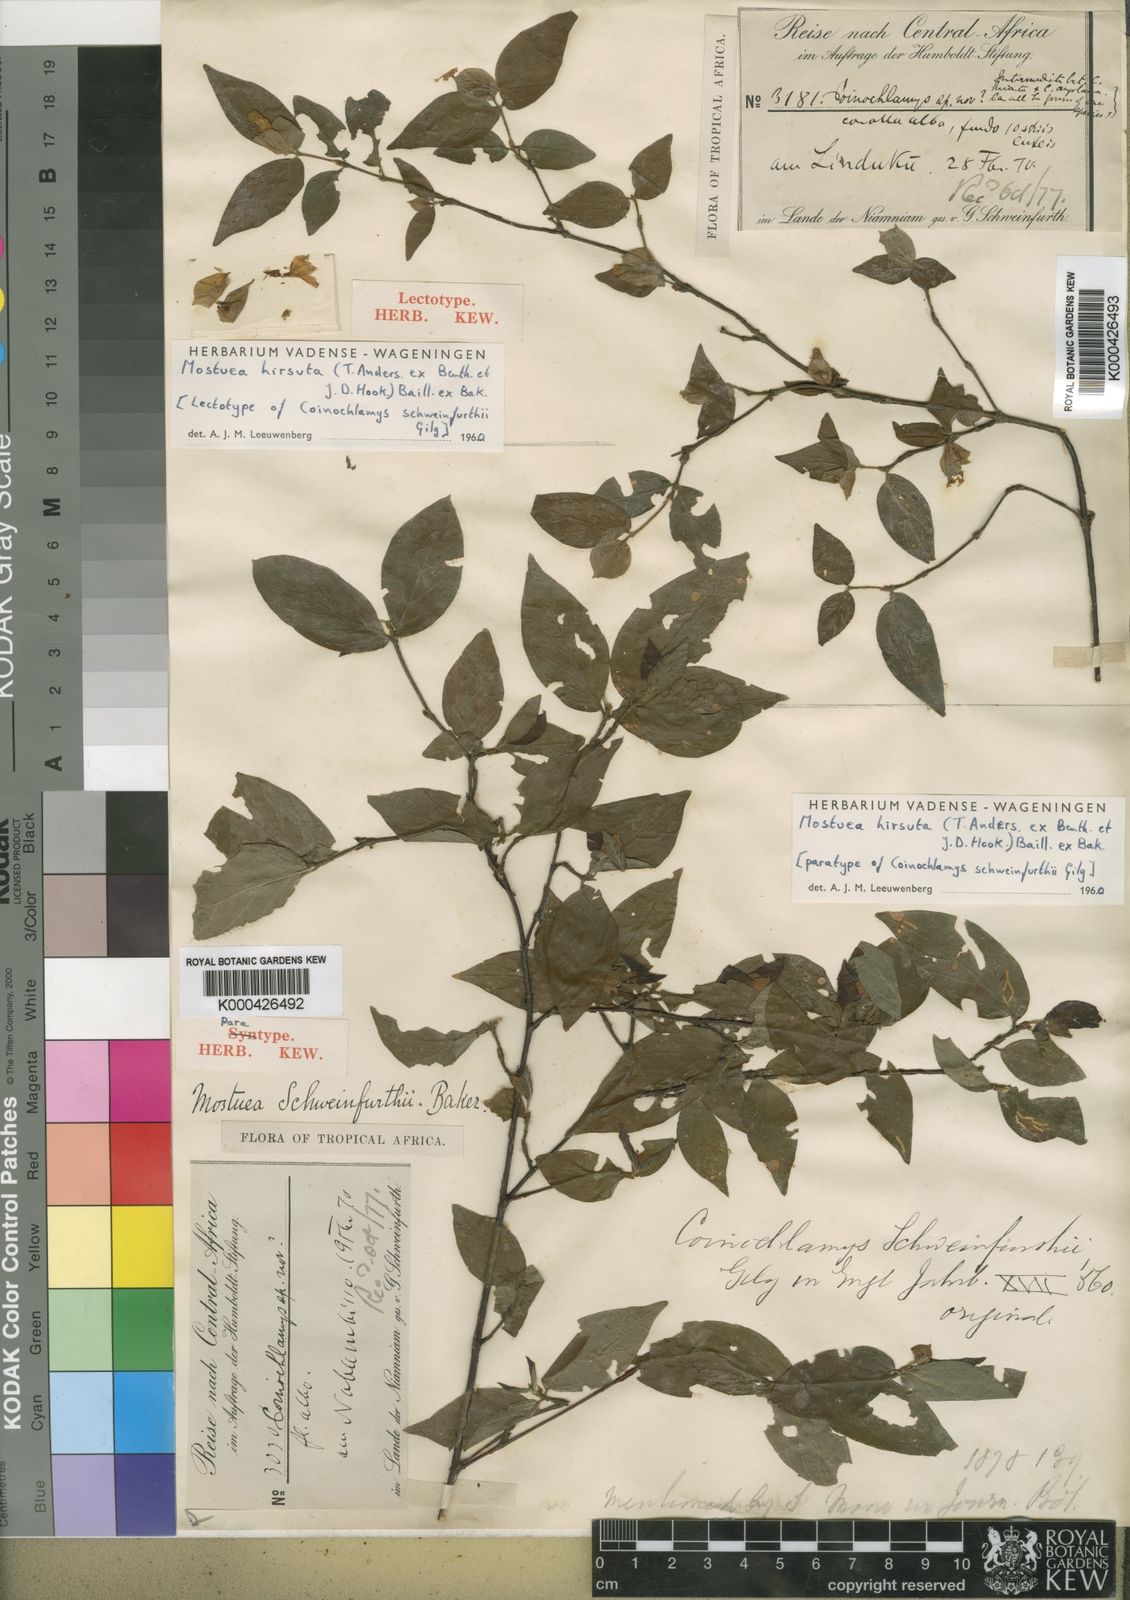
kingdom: Plantae
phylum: Tracheophyta
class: Magnoliopsida
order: Gentianales
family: Gelsemiaceae
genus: Mostuea
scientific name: Mostuea
